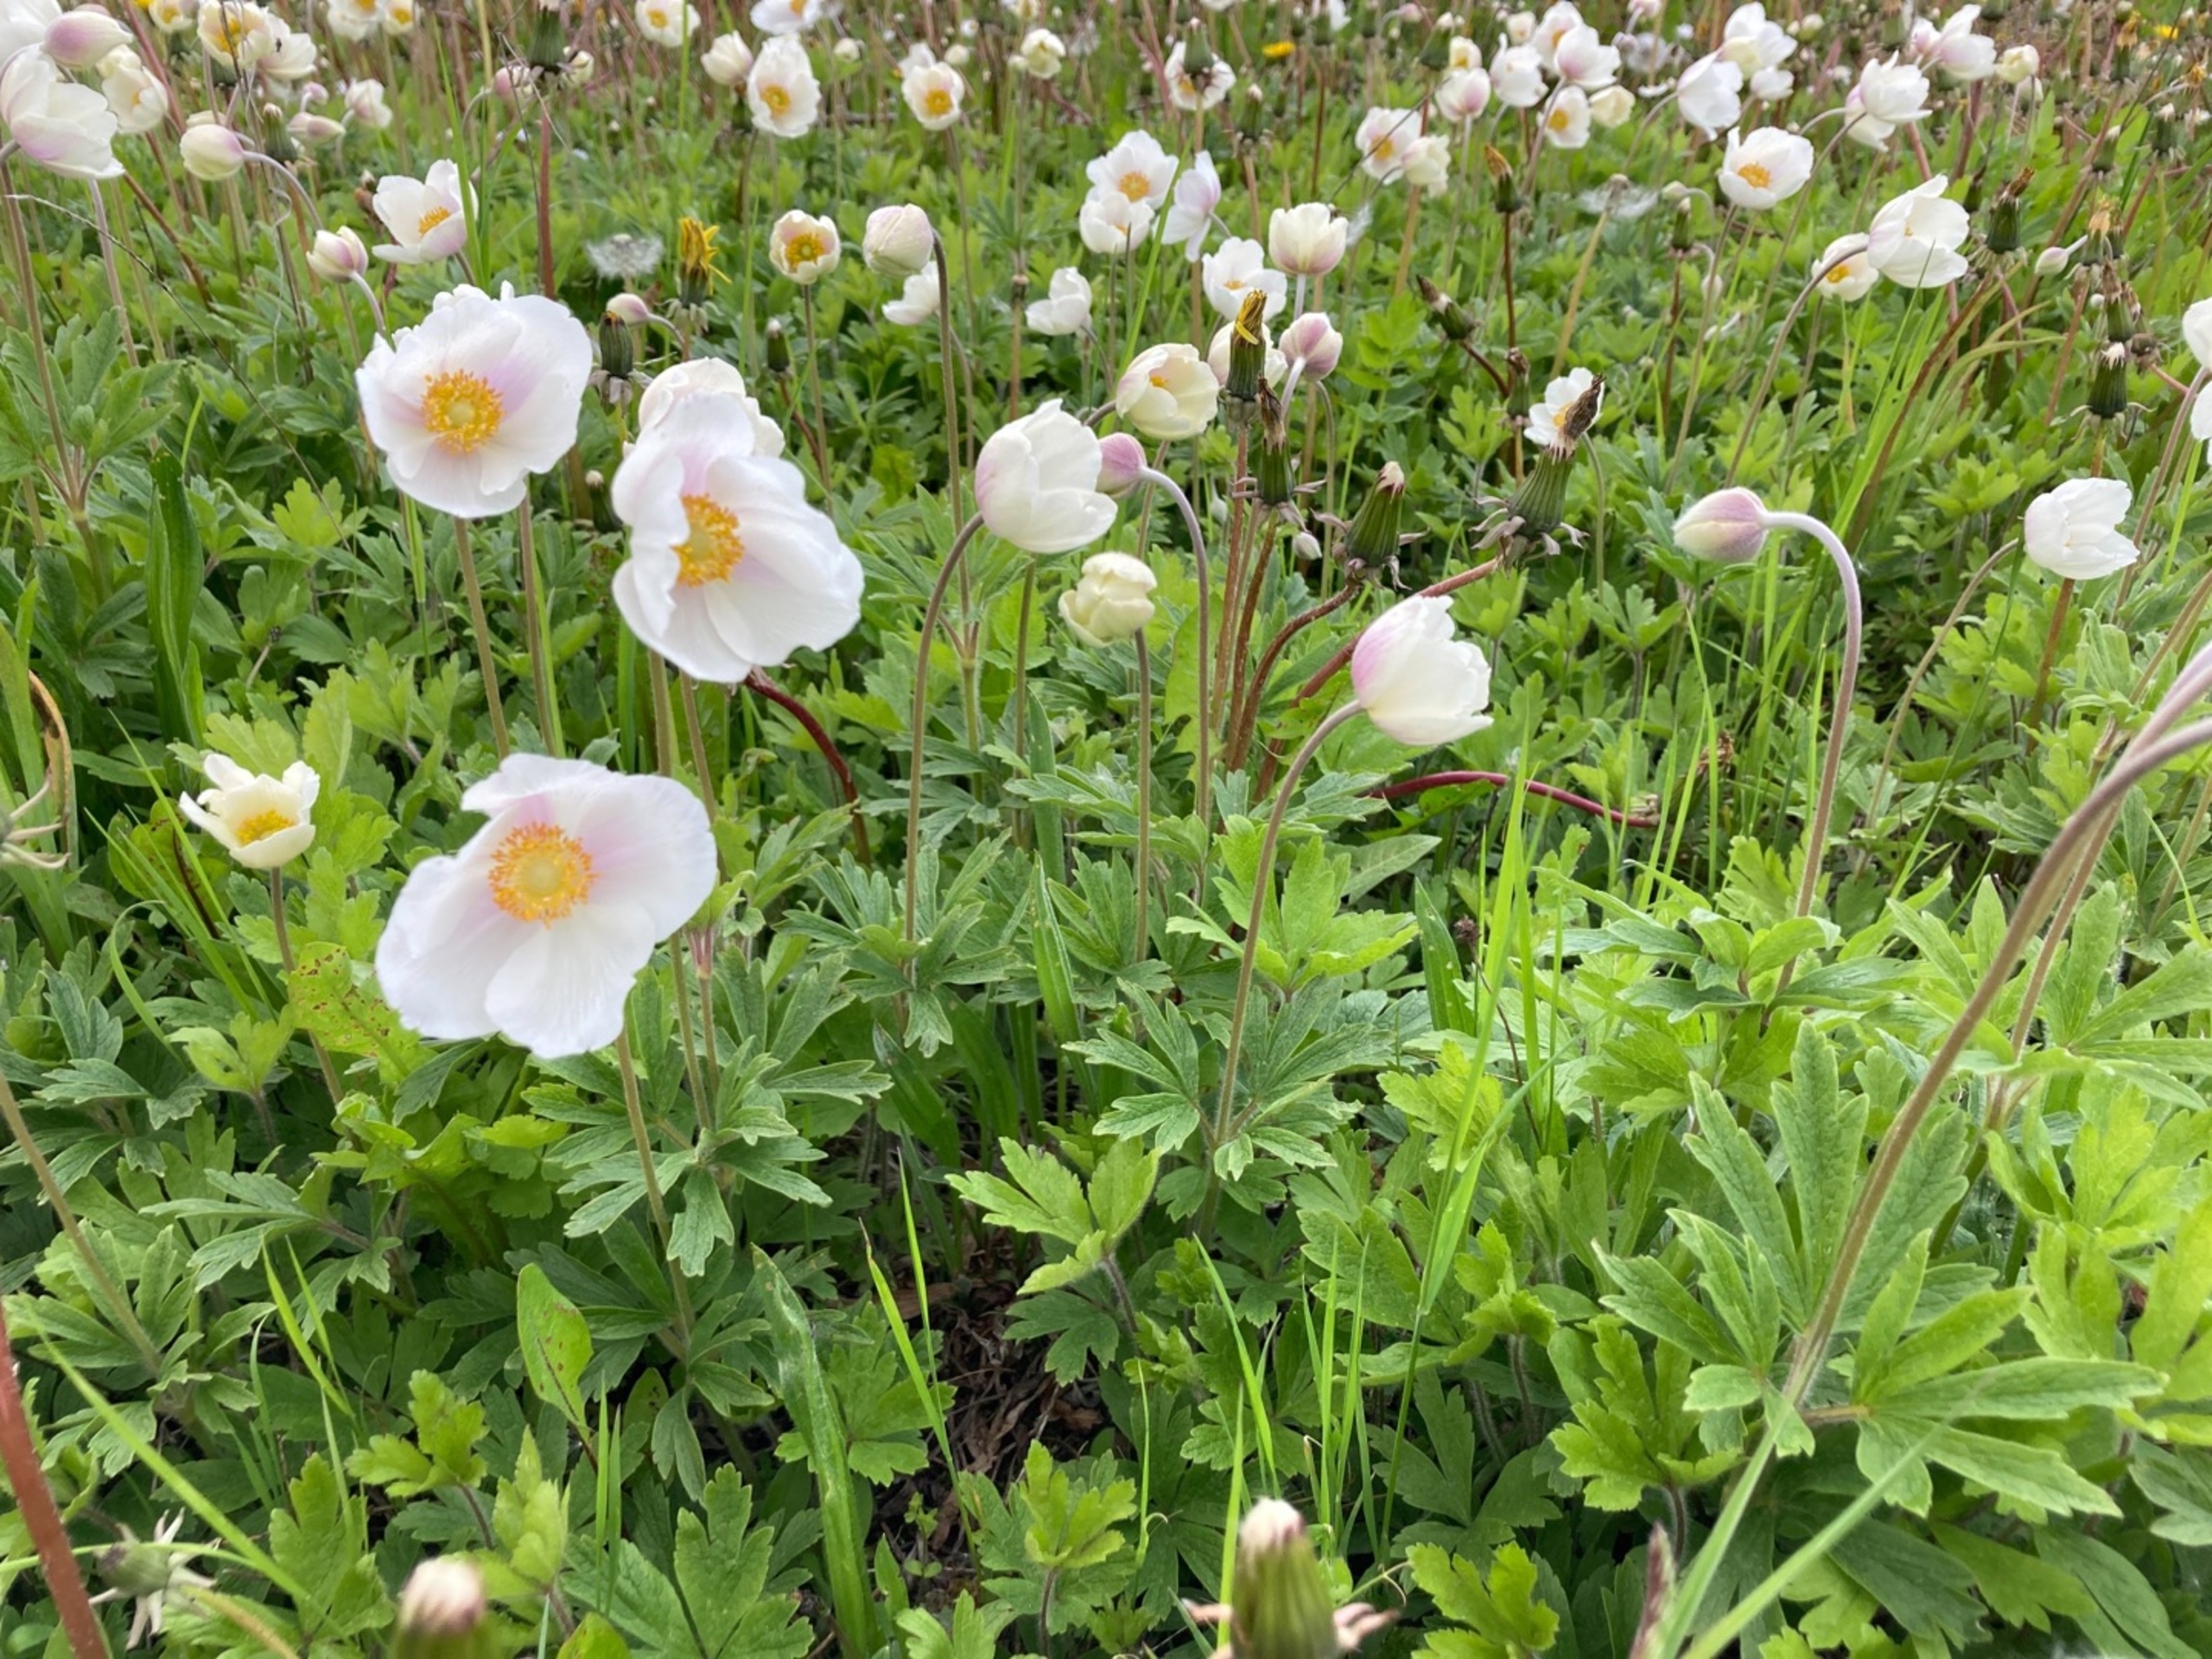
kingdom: Plantae
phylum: Tracheophyta
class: Magnoliopsida
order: Ranunculales
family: Ranunculaceae
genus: Anemone
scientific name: Anemone sylvestris
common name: Sommer-anemone
